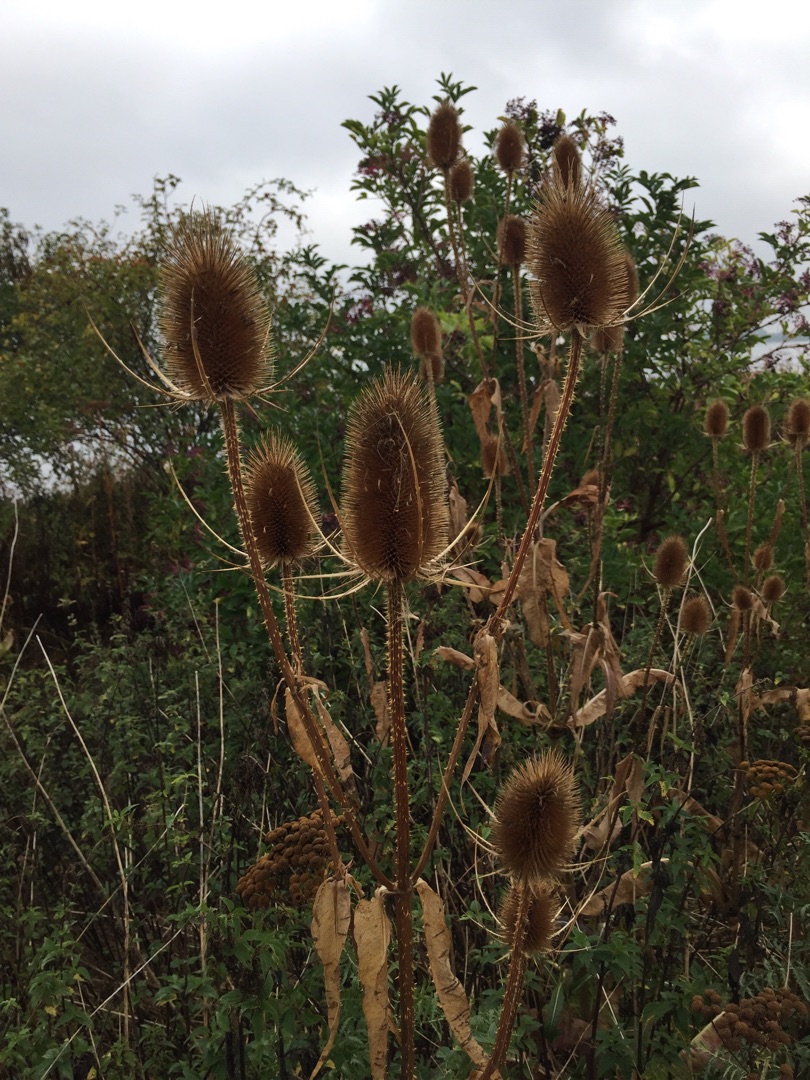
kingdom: Plantae
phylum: Tracheophyta
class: Magnoliopsida
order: Dipsacales
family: Caprifoliaceae
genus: Dipsacus
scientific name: Dipsacus fullonum
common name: Gærde-kartebolle
